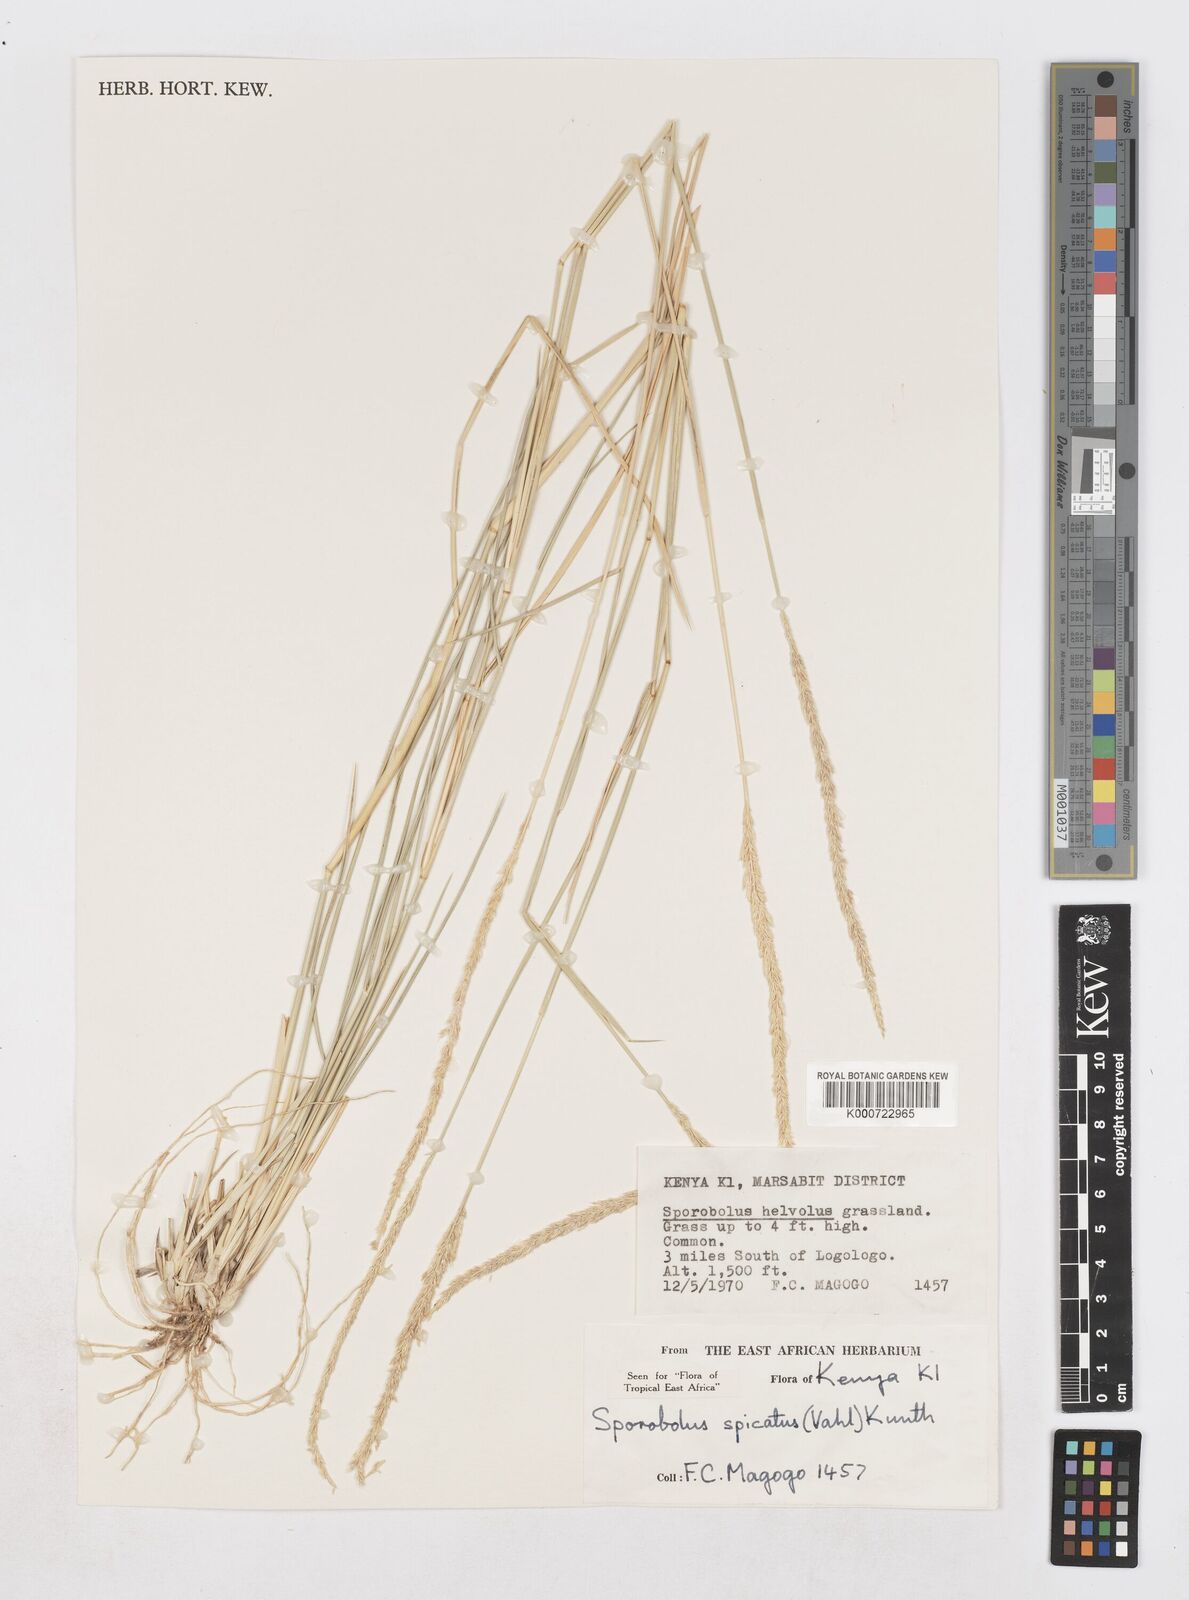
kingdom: Plantae
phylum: Tracheophyta
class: Liliopsida
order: Poales
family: Poaceae
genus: Sporobolus
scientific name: Sporobolus spicatus
